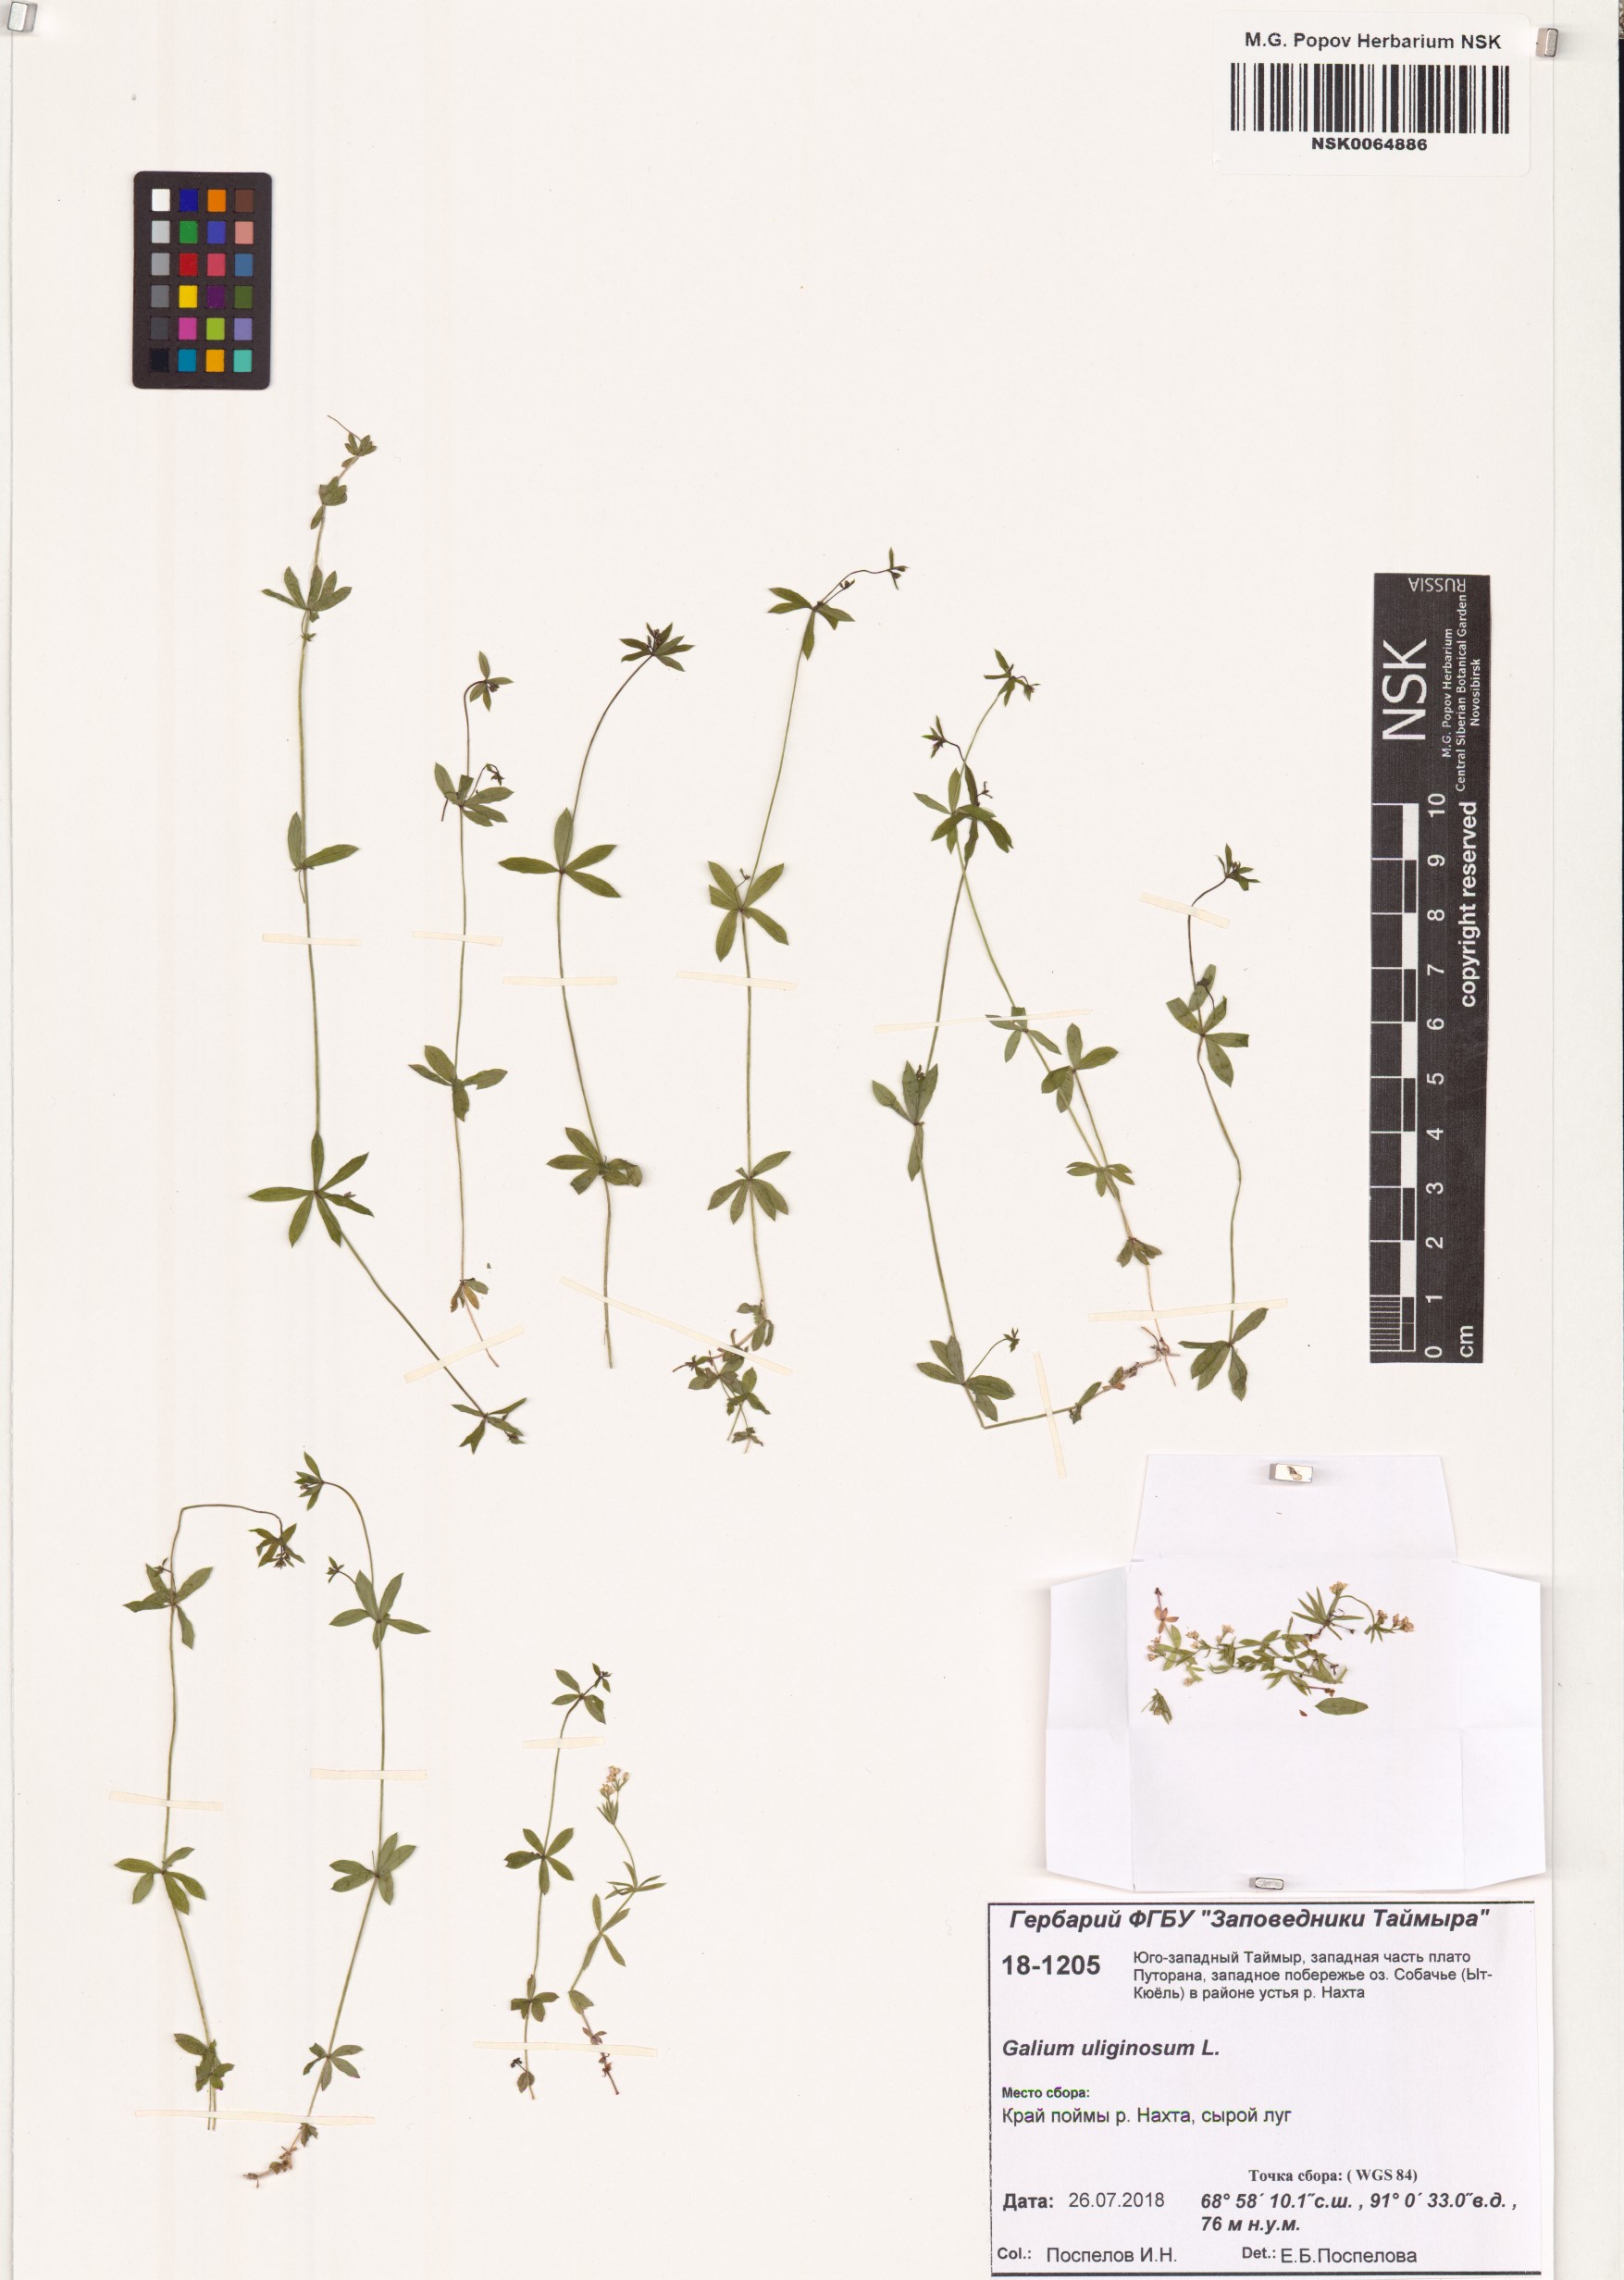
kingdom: Plantae
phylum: Tracheophyta
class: Magnoliopsida
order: Gentianales
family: Rubiaceae
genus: Galium
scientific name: Galium uliginosum
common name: Fen bedstraw
